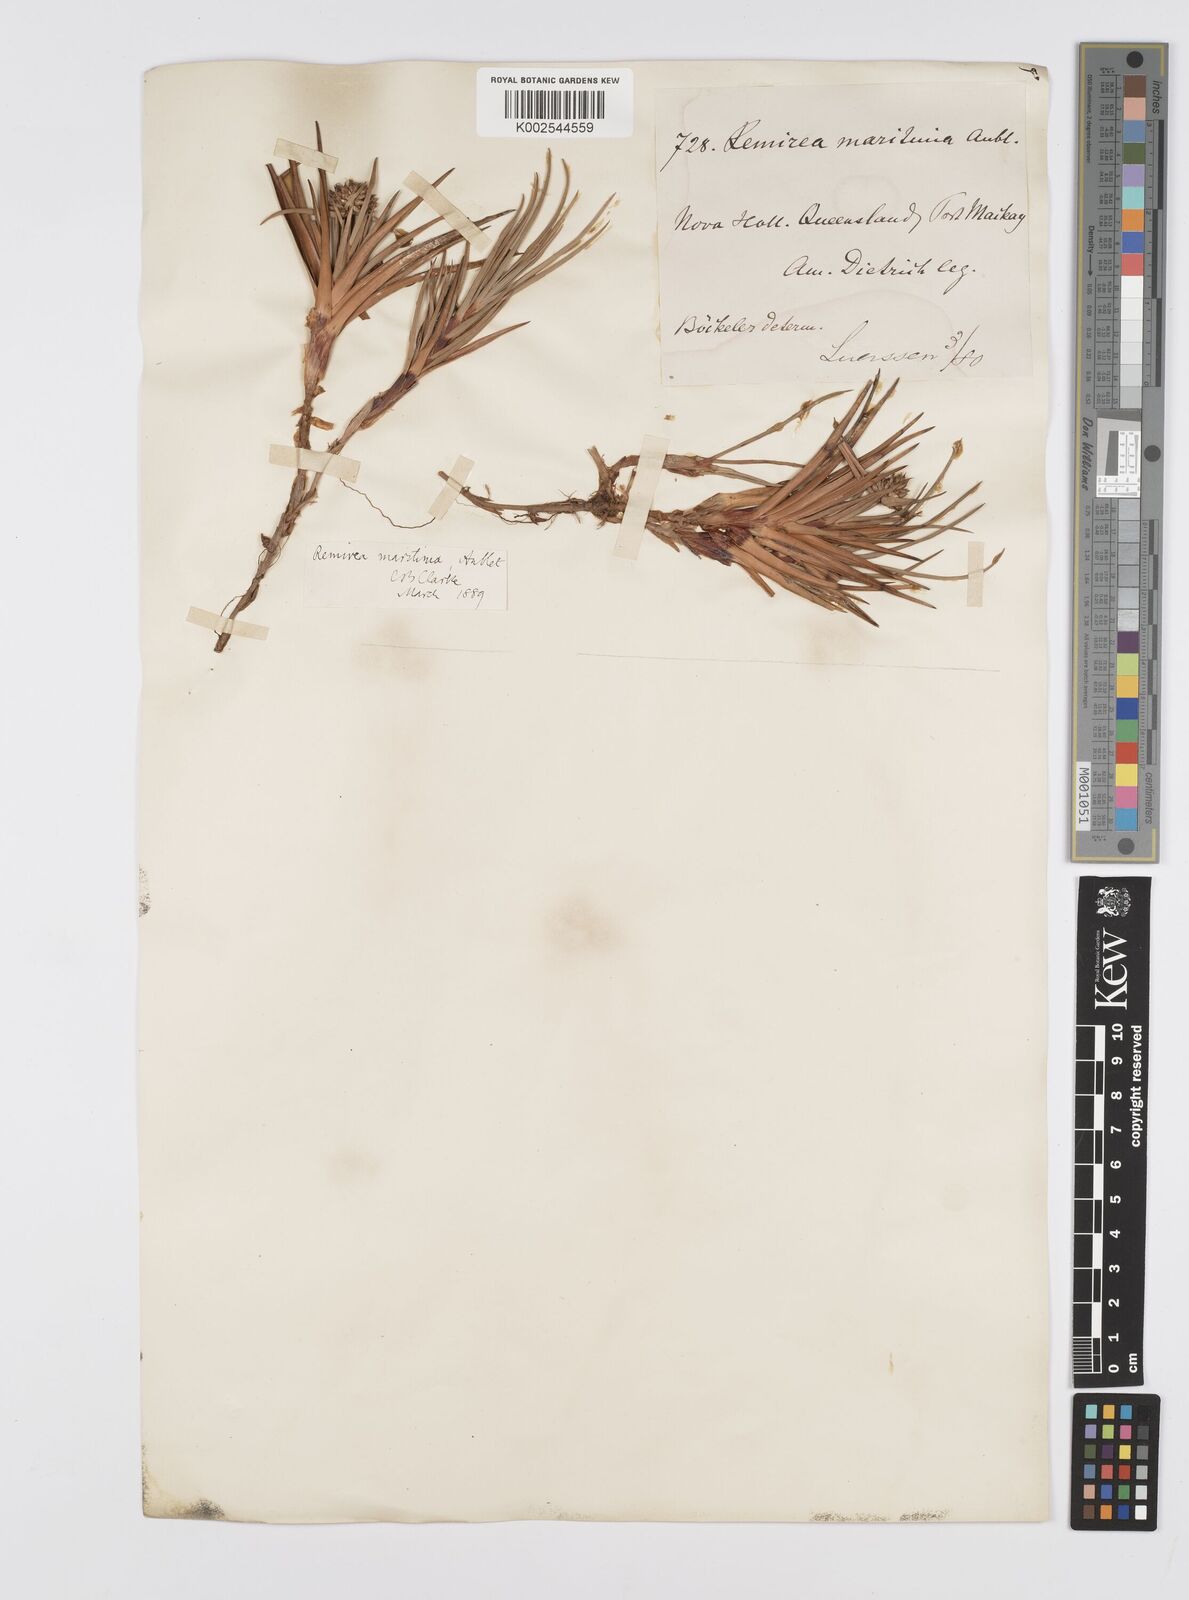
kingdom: Plantae
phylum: Tracheophyta
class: Liliopsida
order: Poales
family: Cyperaceae
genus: Cyperus
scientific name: Cyperus
